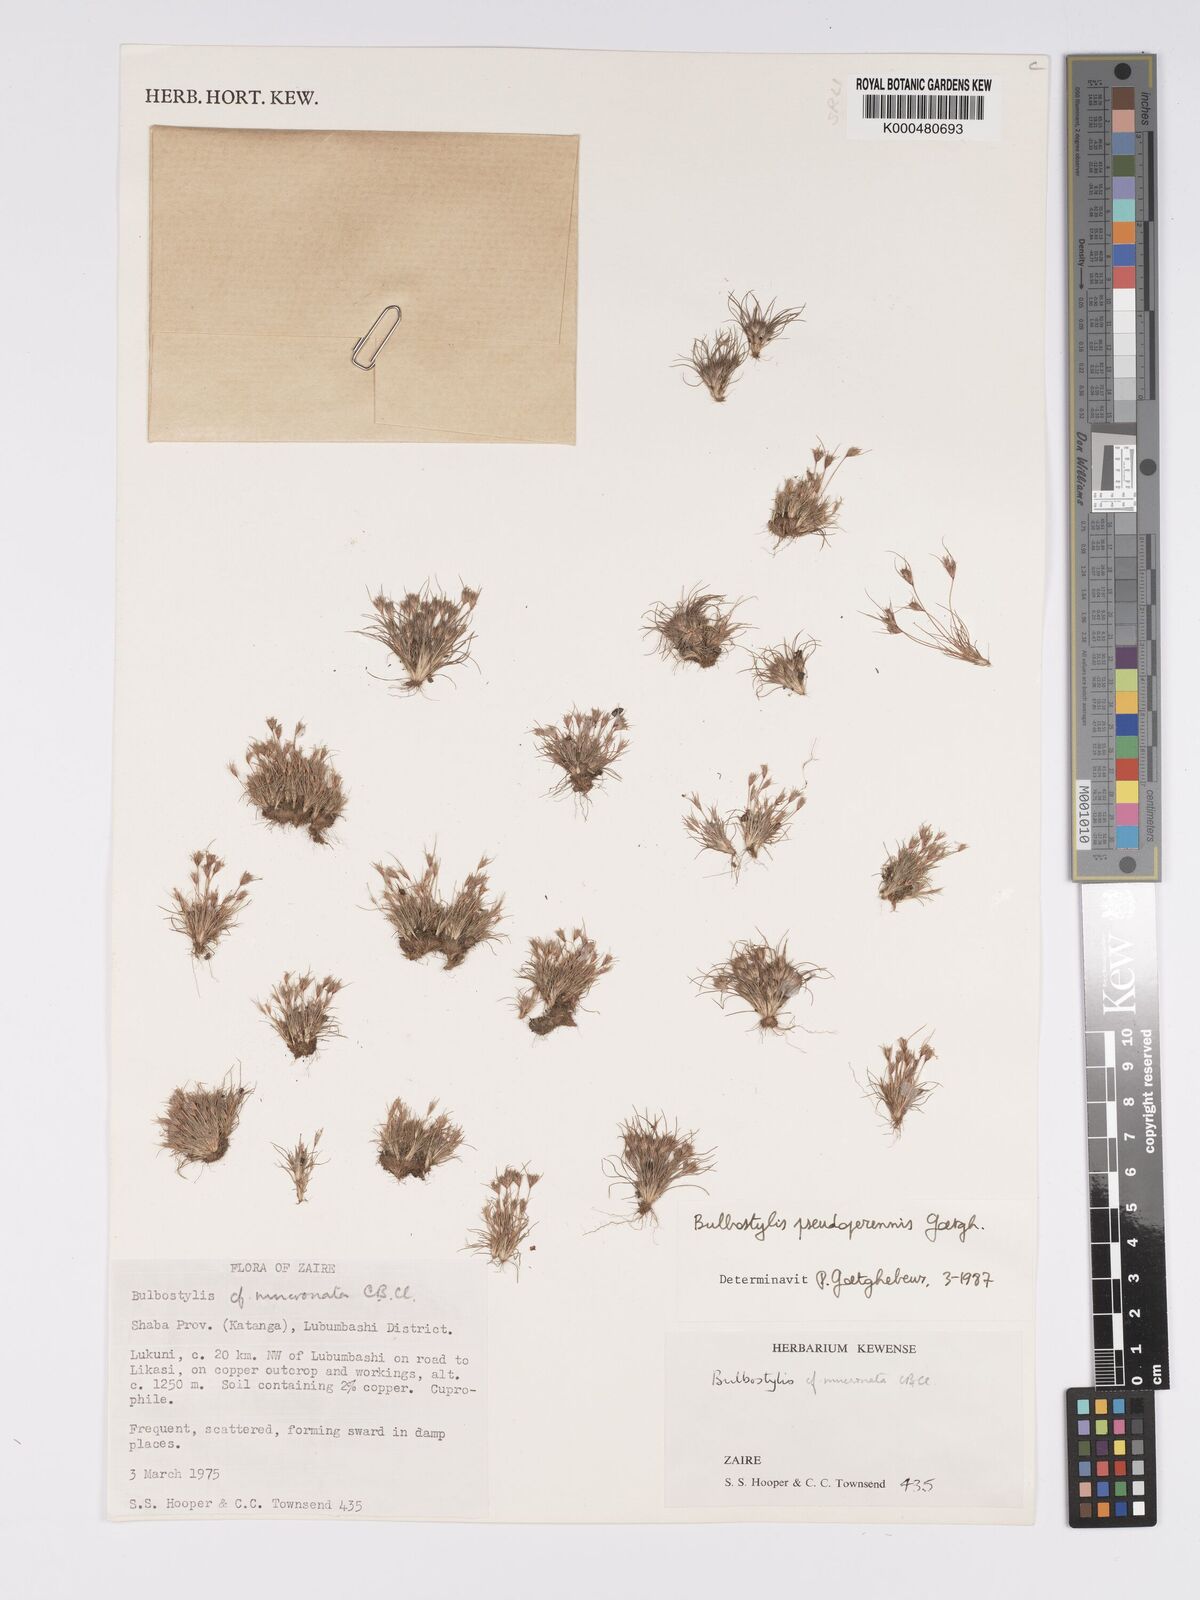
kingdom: Plantae
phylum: Tracheophyta
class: Liliopsida
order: Poales
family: Cyperaceae
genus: Bulbostylis
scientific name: Bulbostylis abbreviata
